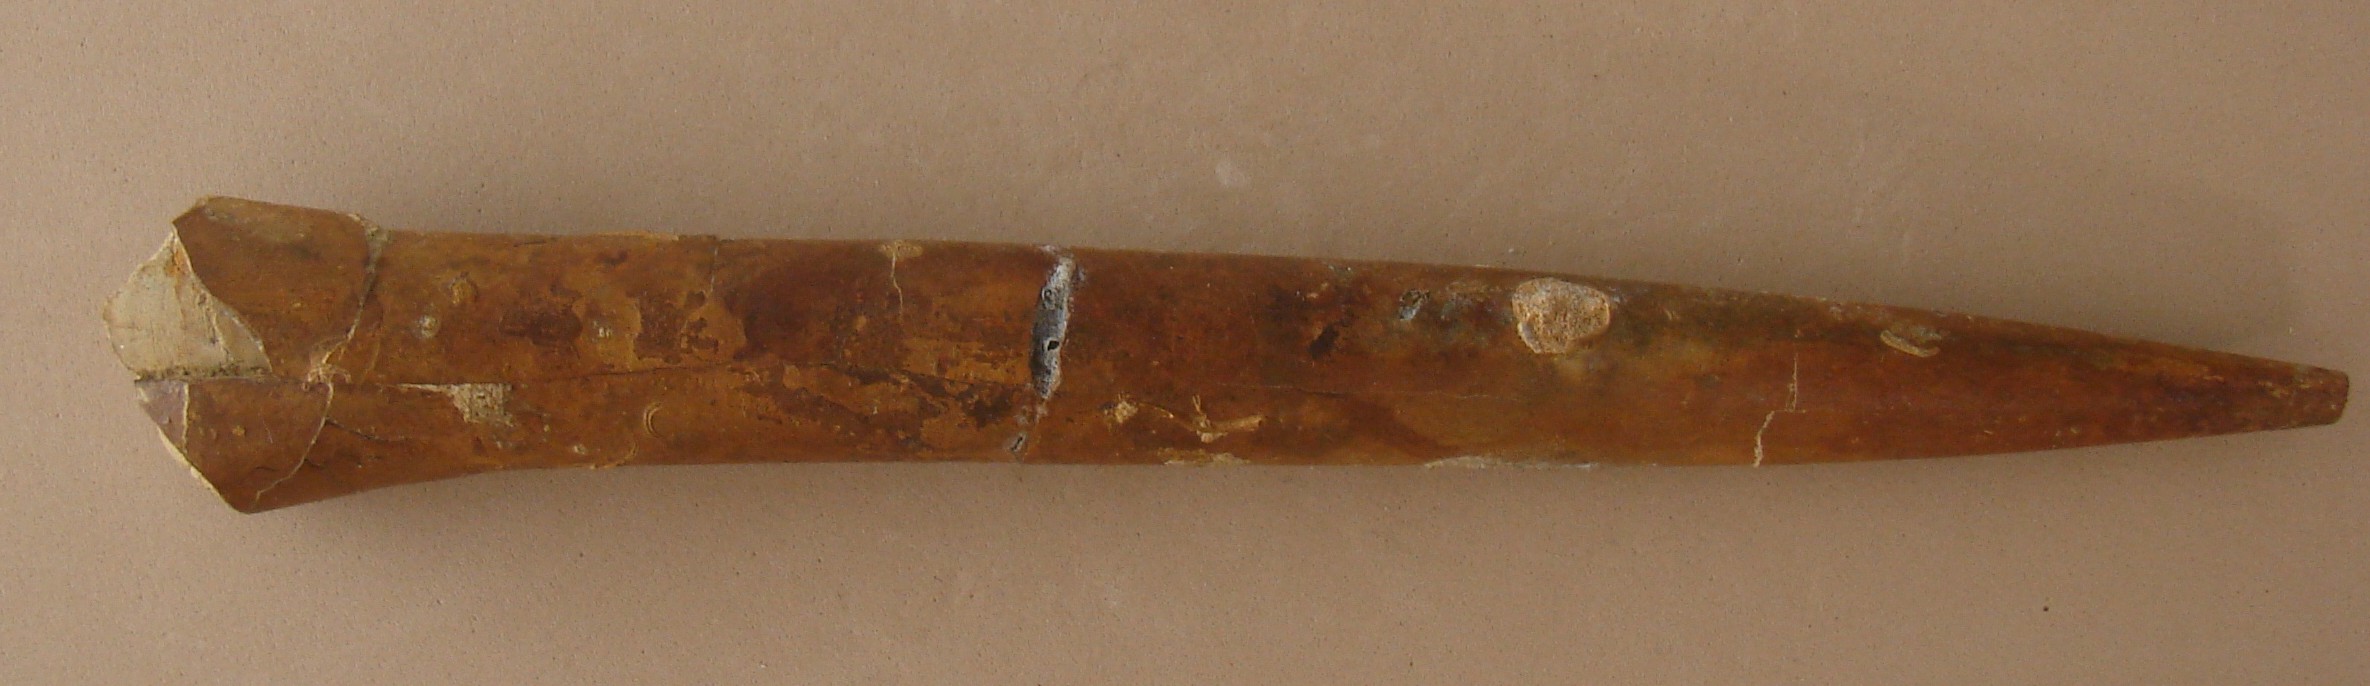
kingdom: Animalia
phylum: Mollusca
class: Cephalopoda
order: Belemnitida
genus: Eocylindroteuthis
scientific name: Eocylindroteuthis
